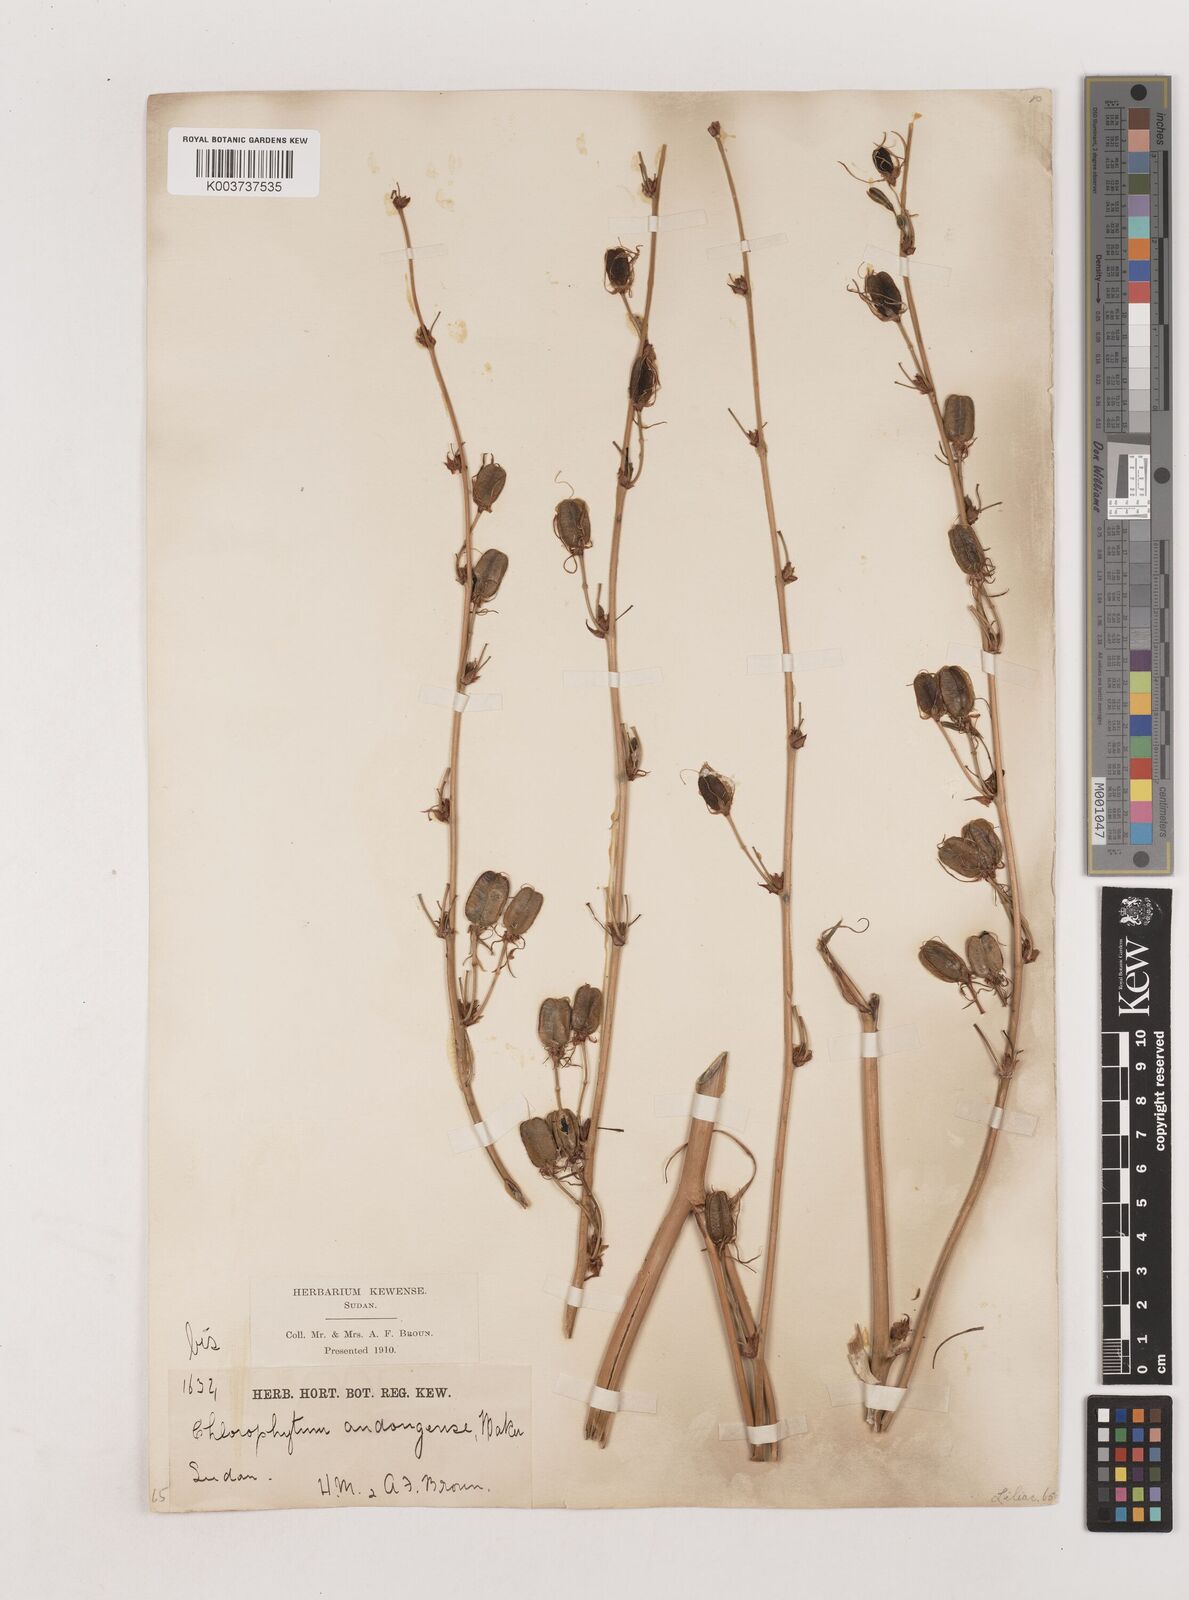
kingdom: Plantae
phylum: Tracheophyta
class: Liliopsida
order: Asparagales
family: Asparagaceae
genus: Chlorophytum
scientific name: Chlorophytum andongense
